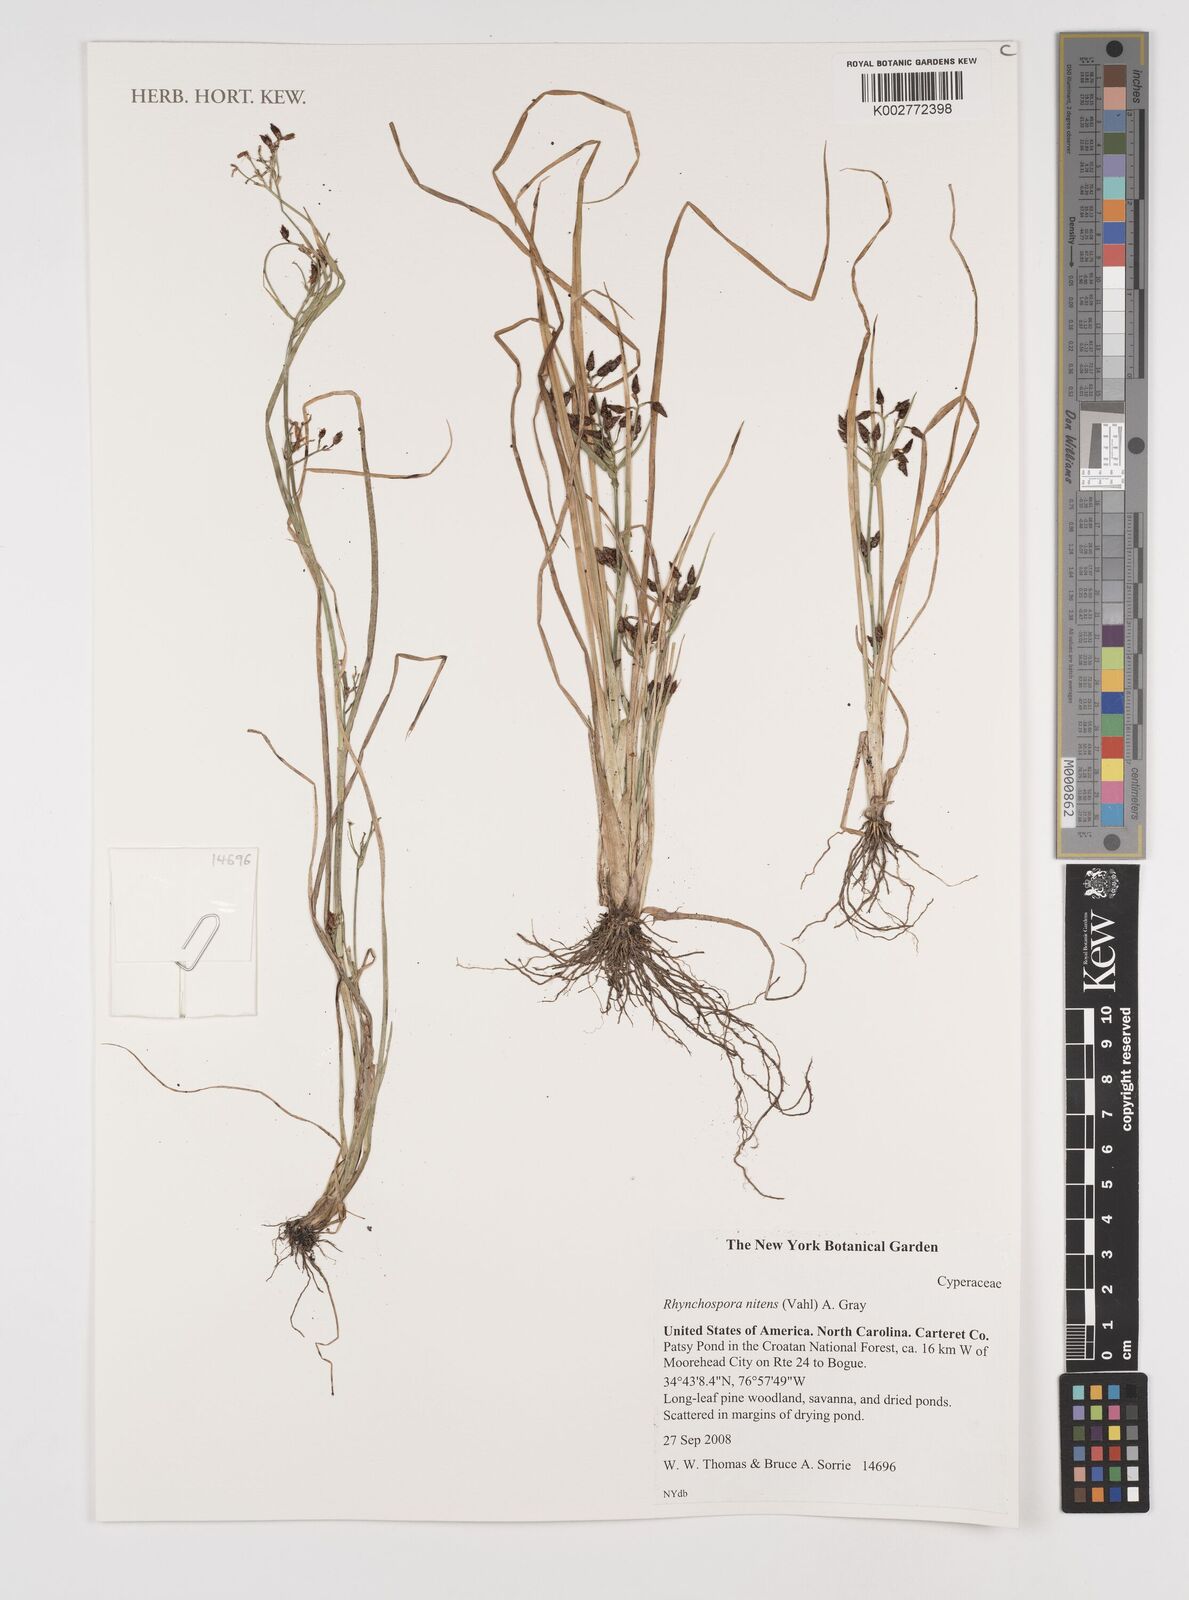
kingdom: Plantae
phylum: Tracheophyta
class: Liliopsida
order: Poales
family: Cyperaceae
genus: Rhynchospora
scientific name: Rhynchospora nitens
